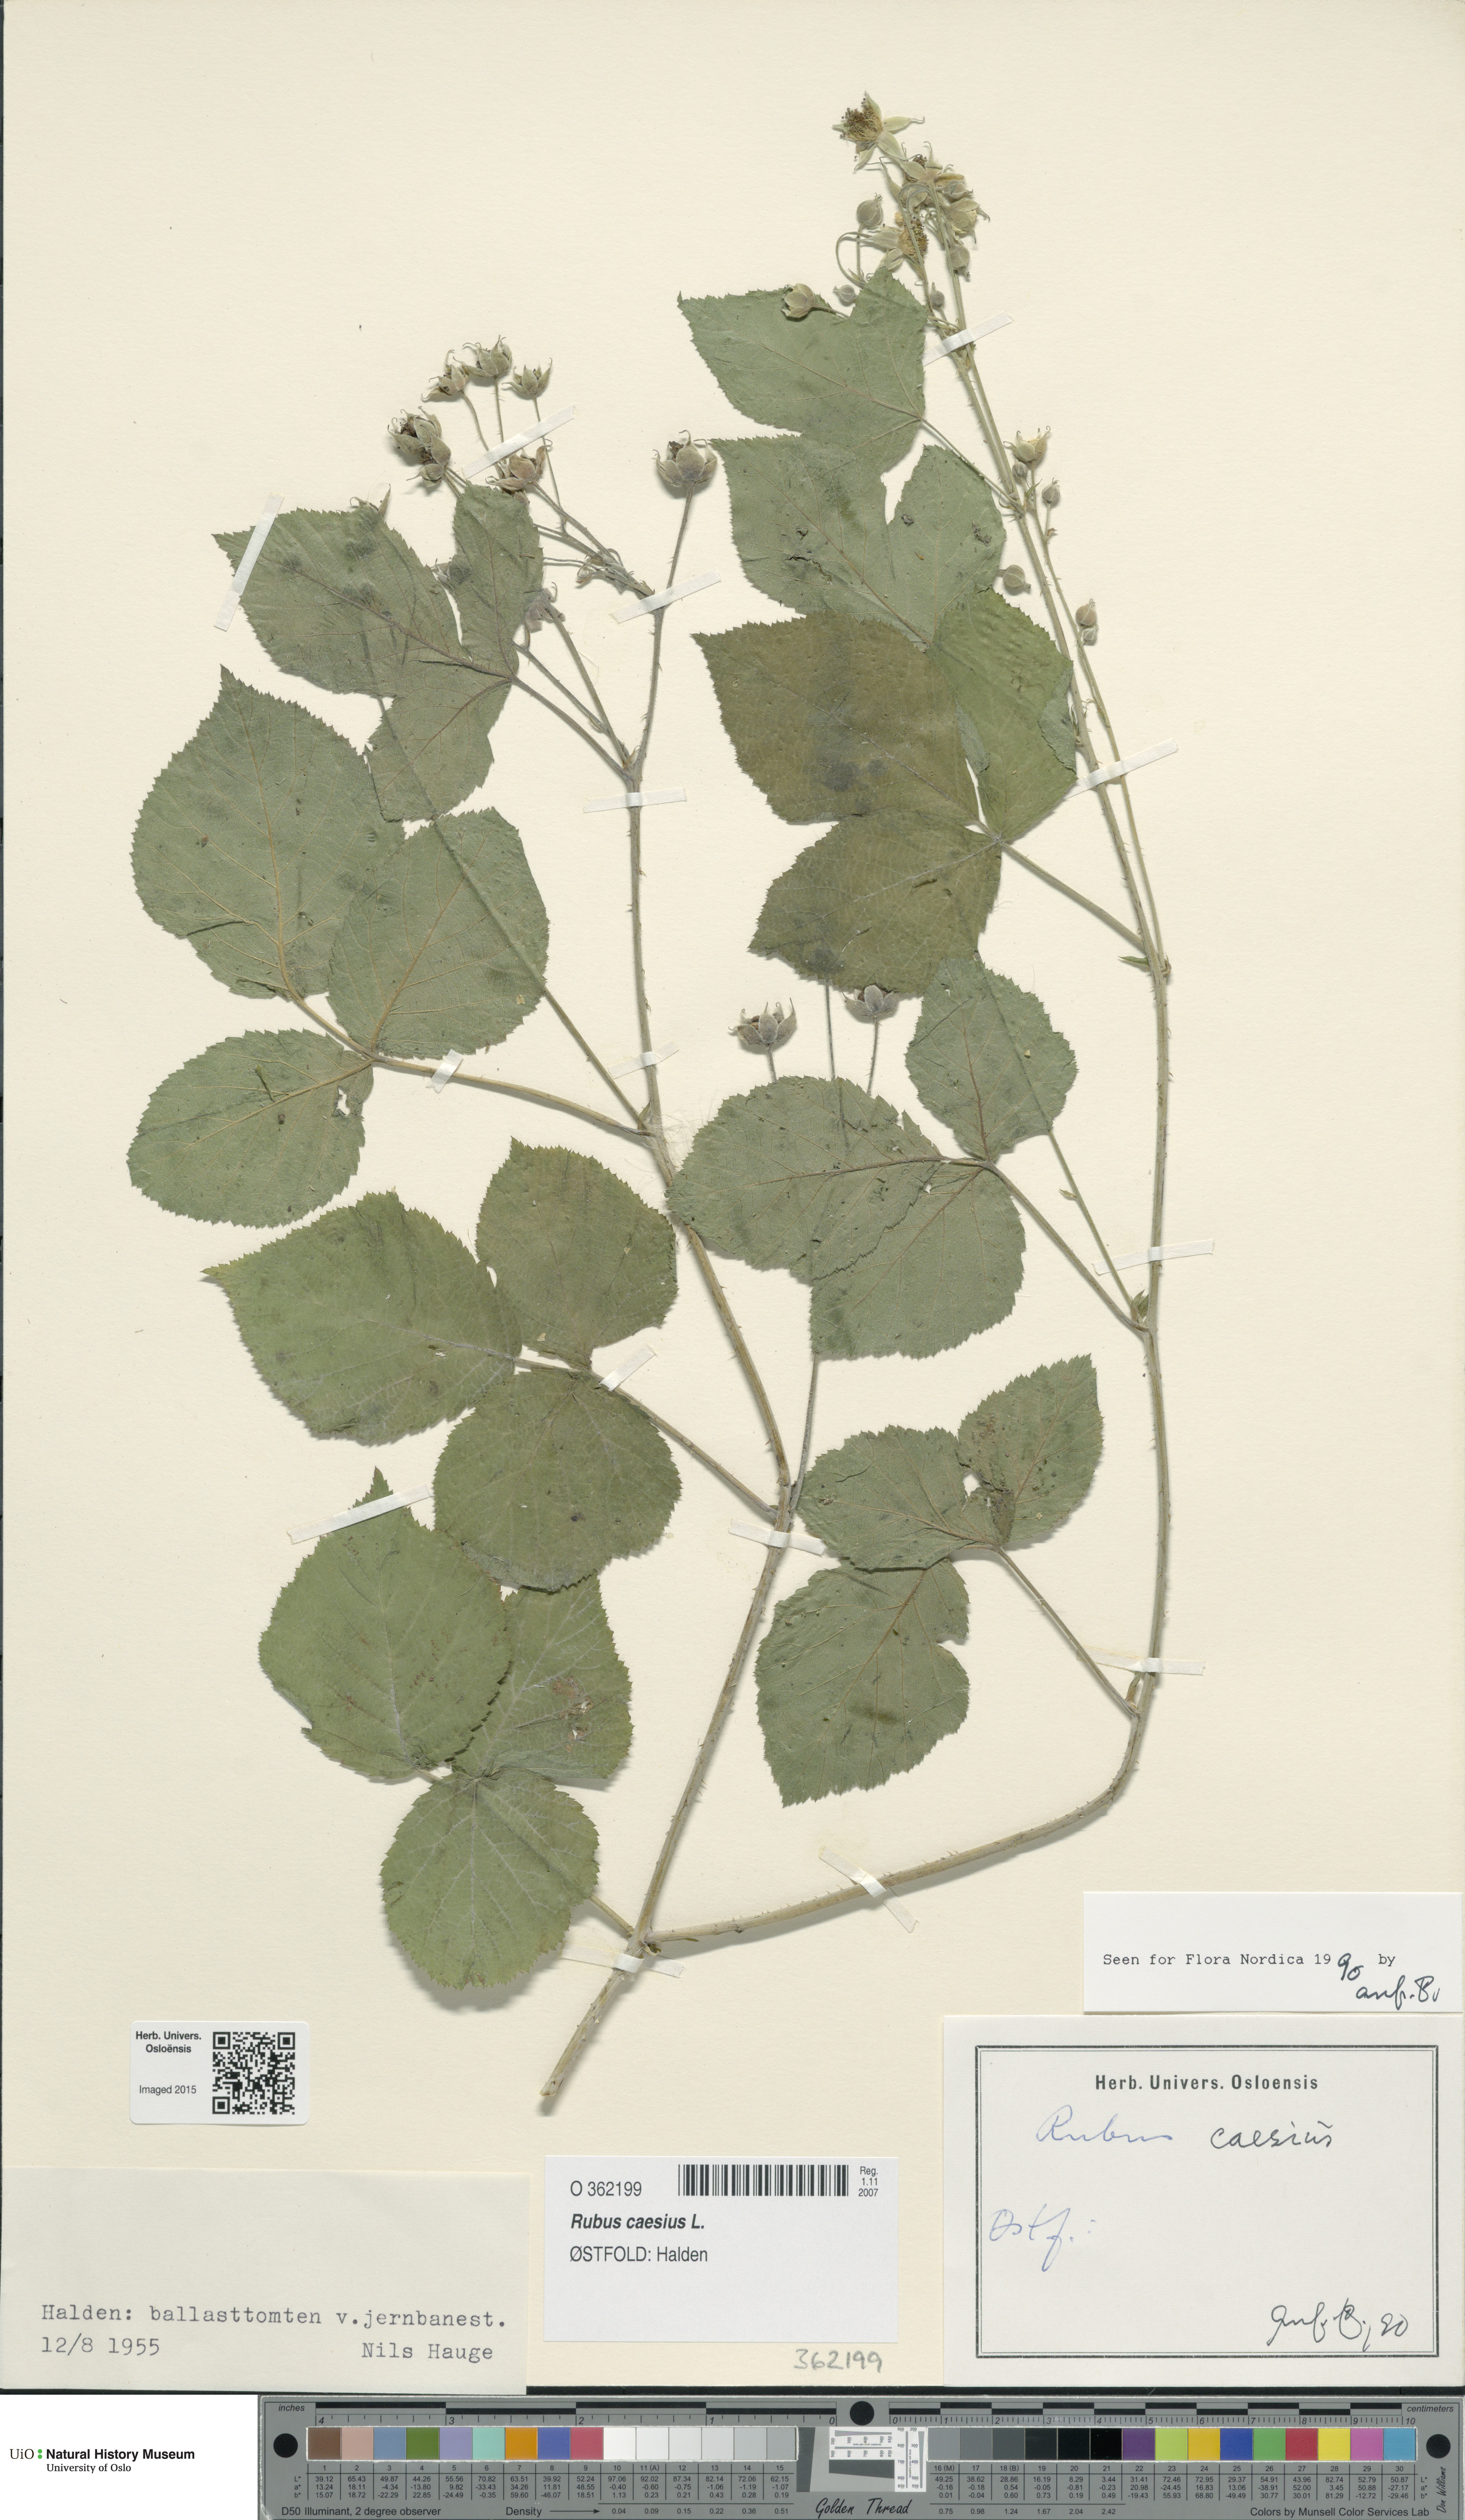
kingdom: Plantae
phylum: Tracheophyta
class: Magnoliopsida
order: Rosales
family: Rosaceae
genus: Rubus
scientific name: Rubus caesius
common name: Dewberry
